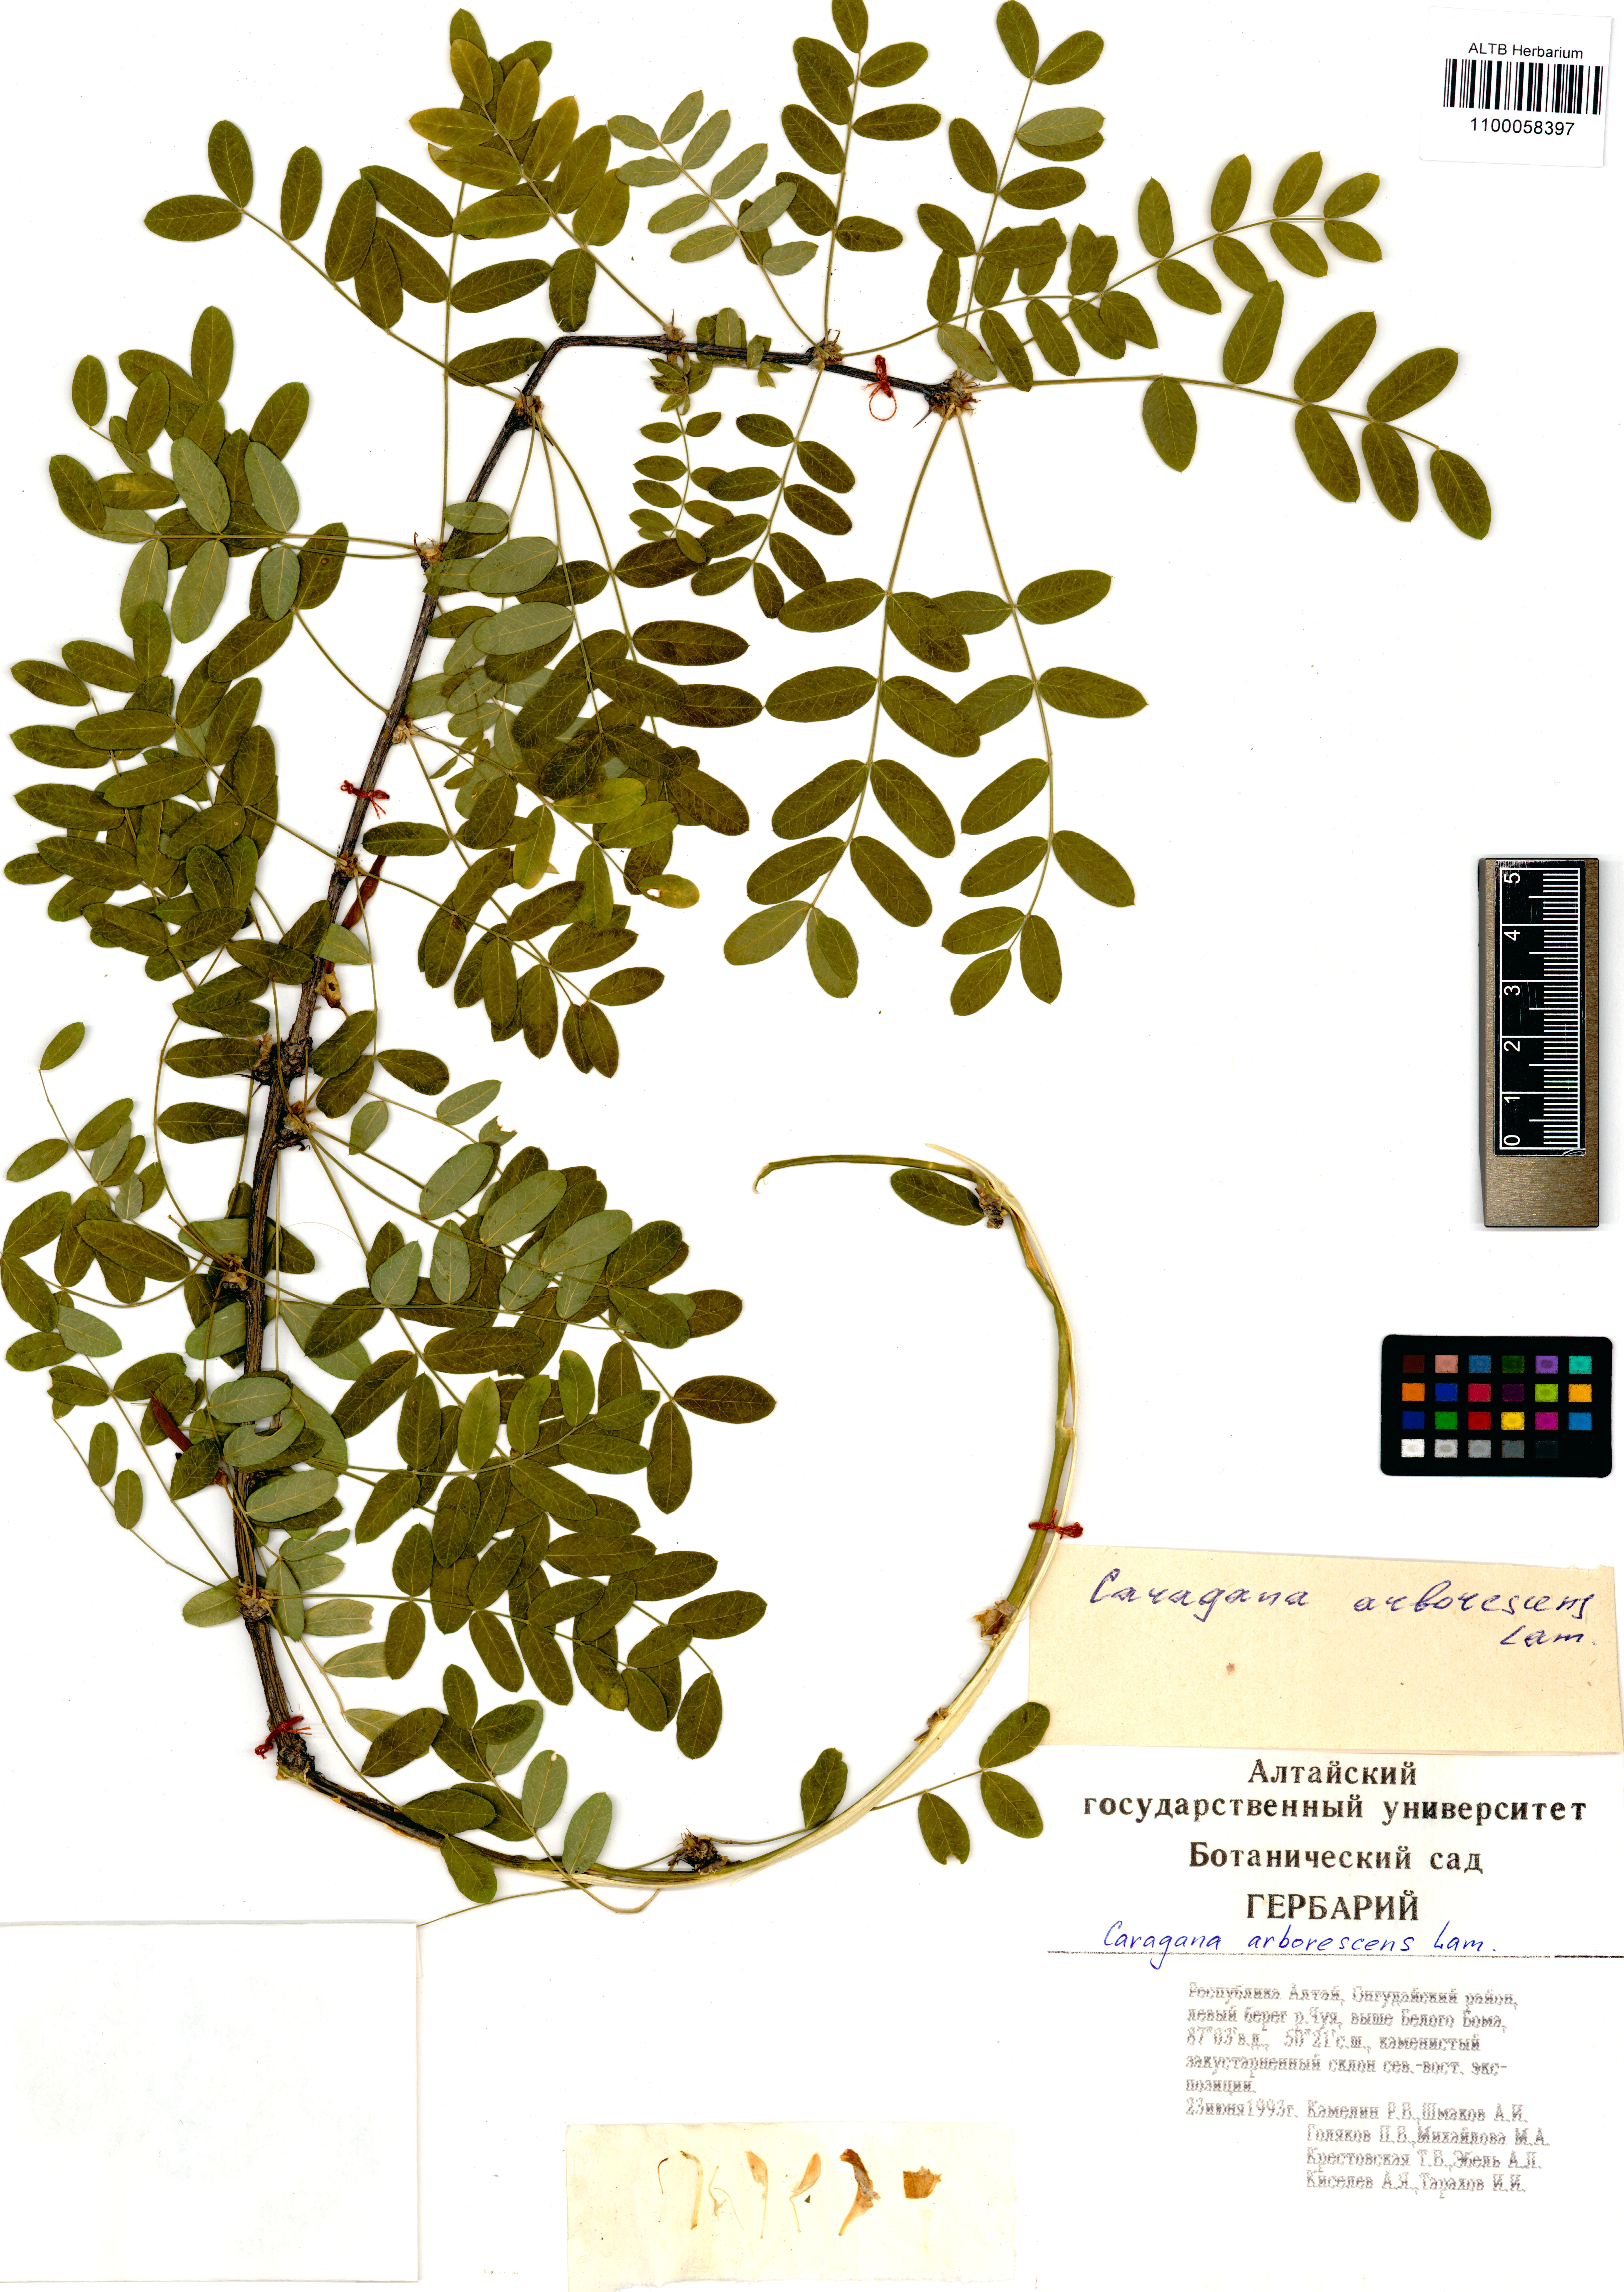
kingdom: Plantae
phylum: Tracheophyta
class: Magnoliopsida
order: Fabales
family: Fabaceae
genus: Caragana
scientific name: Caragana arborescens
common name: Siberian peashrub
